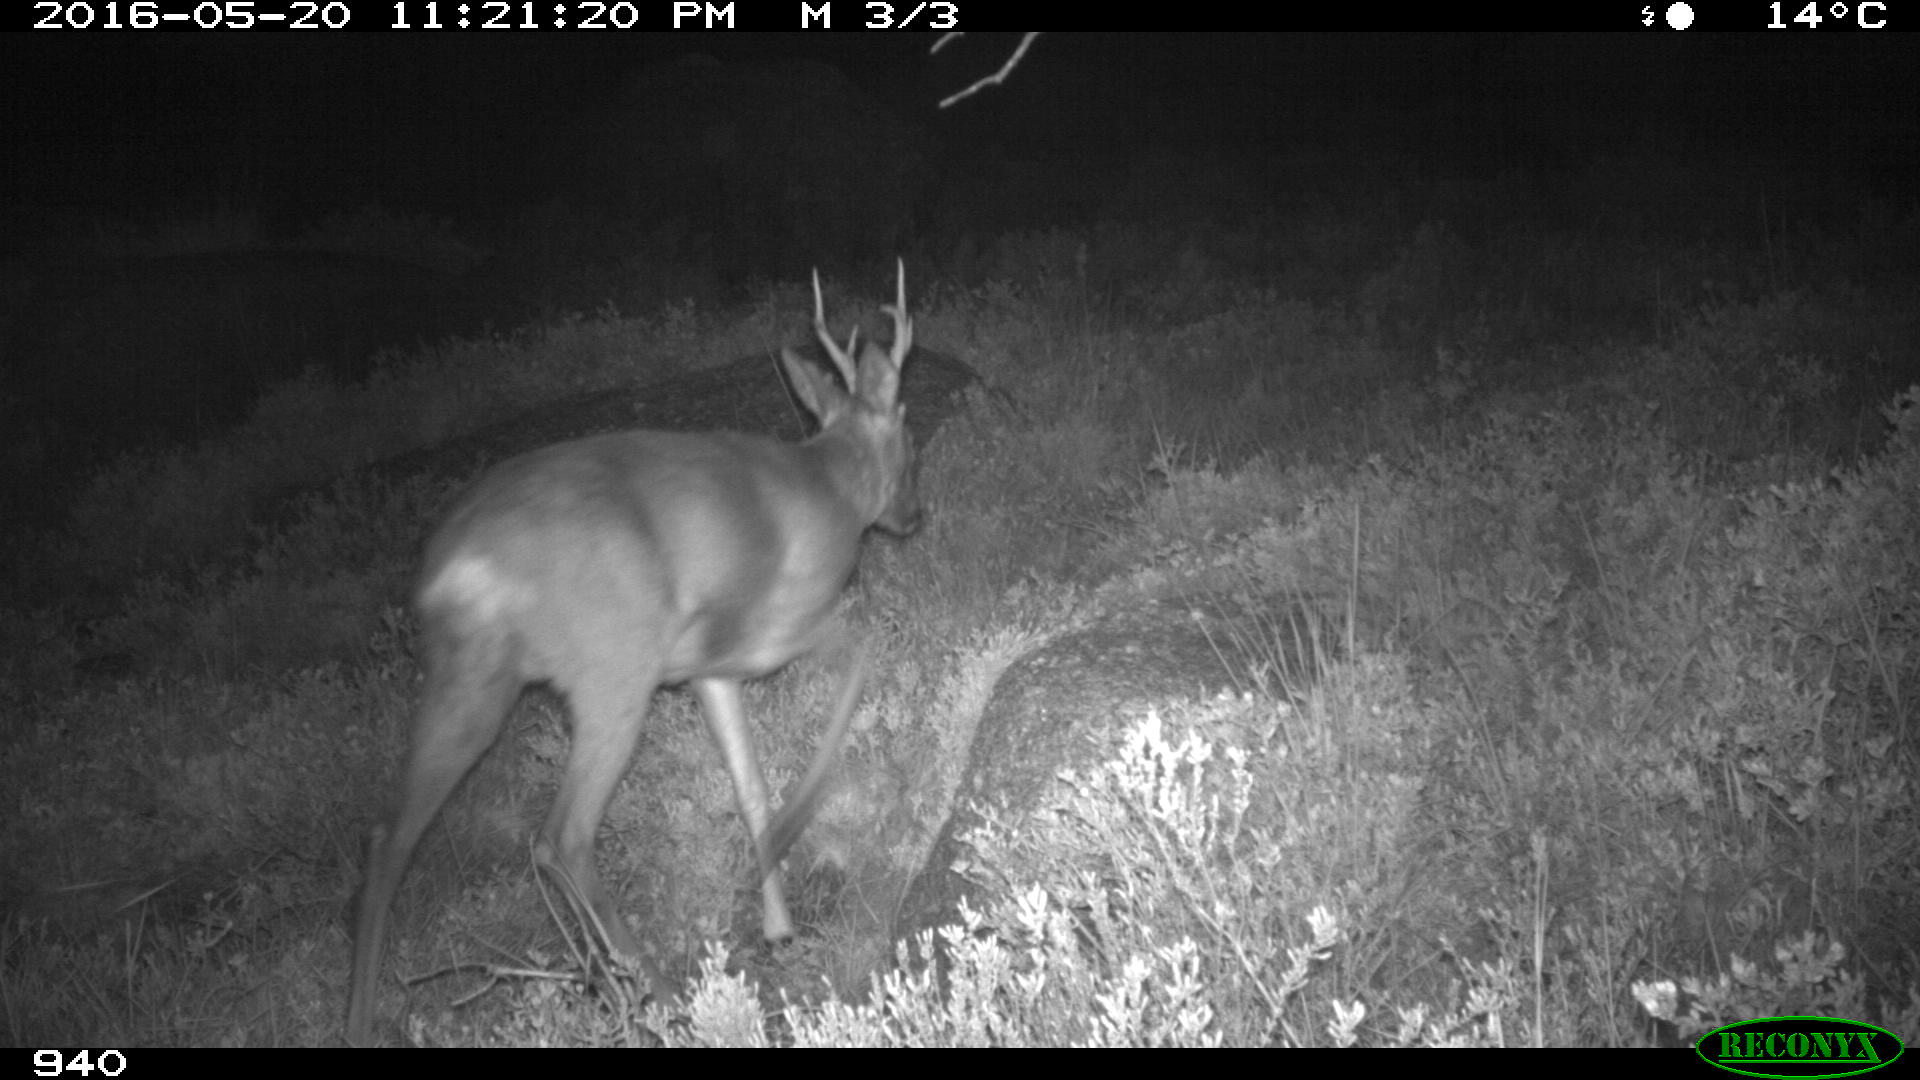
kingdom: Animalia
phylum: Chordata
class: Mammalia
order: Artiodactyla
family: Cervidae
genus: Capreolus
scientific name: Capreolus capreolus
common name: Western roe deer
